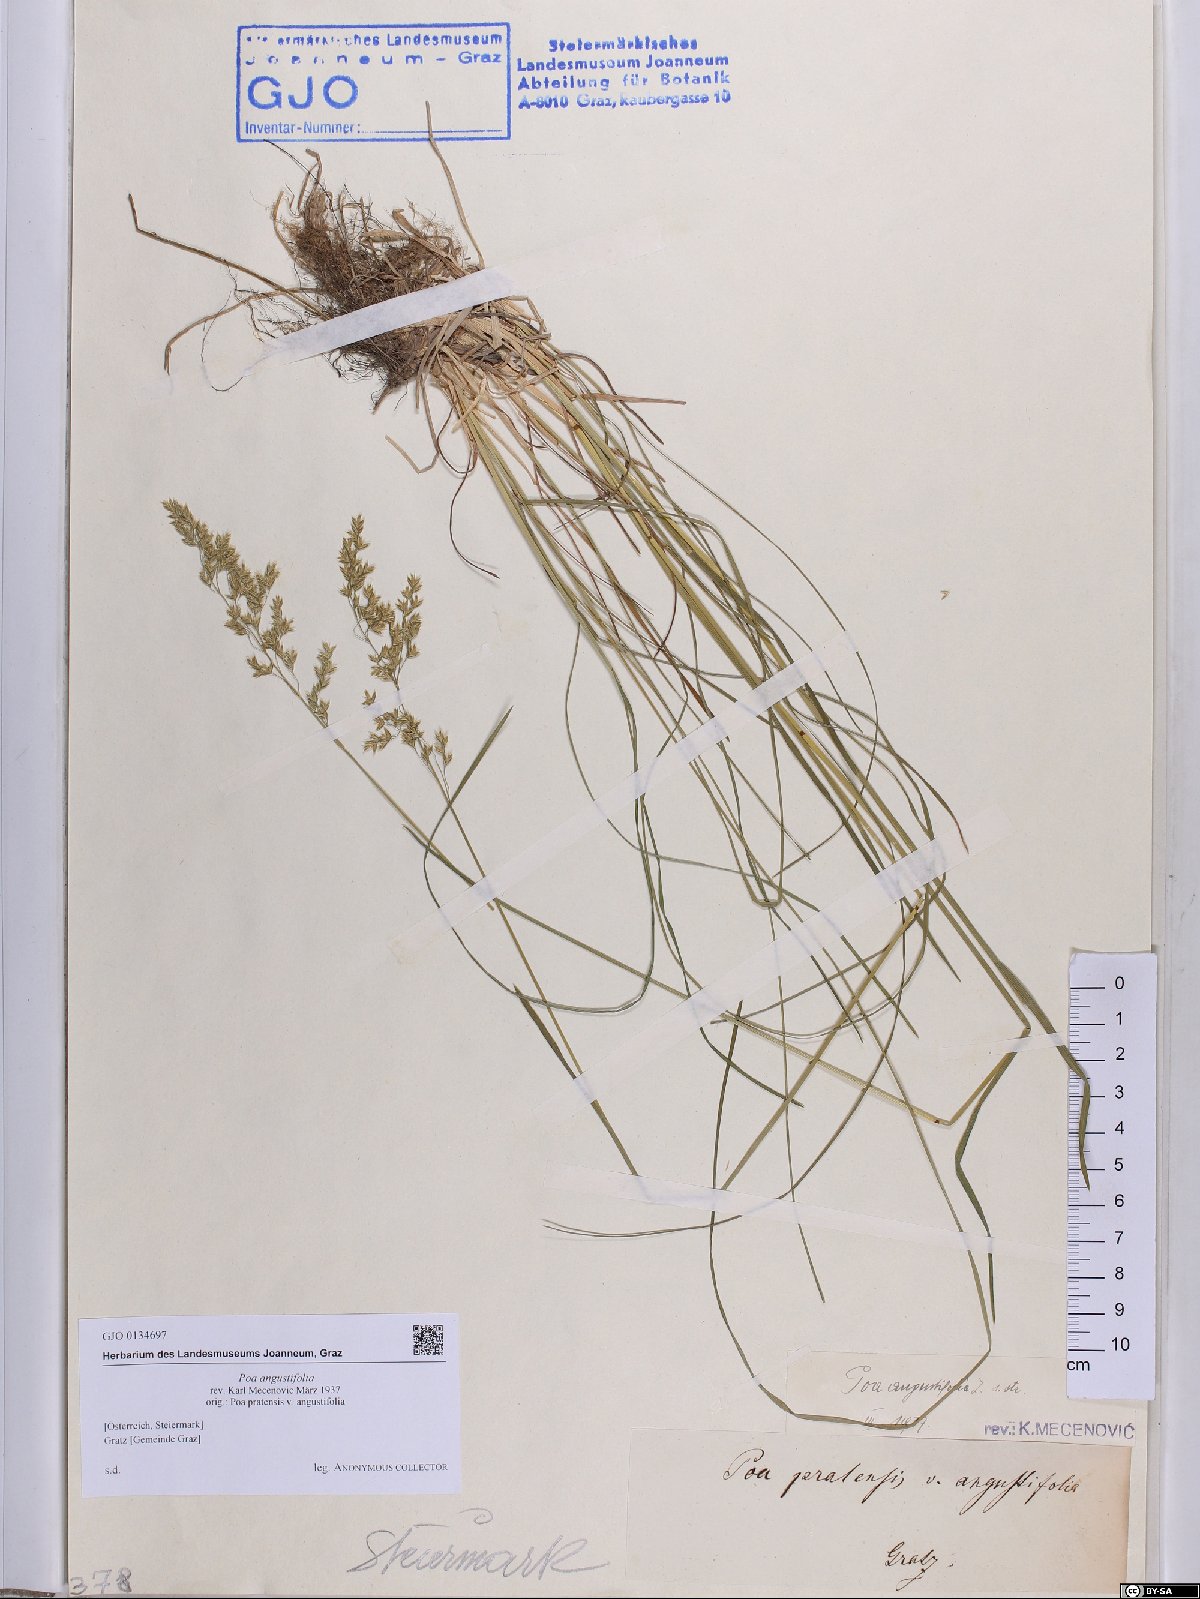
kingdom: Plantae
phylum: Tracheophyta
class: Liliopsida
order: Poales
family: Poaceae
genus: Poa
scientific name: Poa angustifolia
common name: Narrow-leaved meadow-grass
